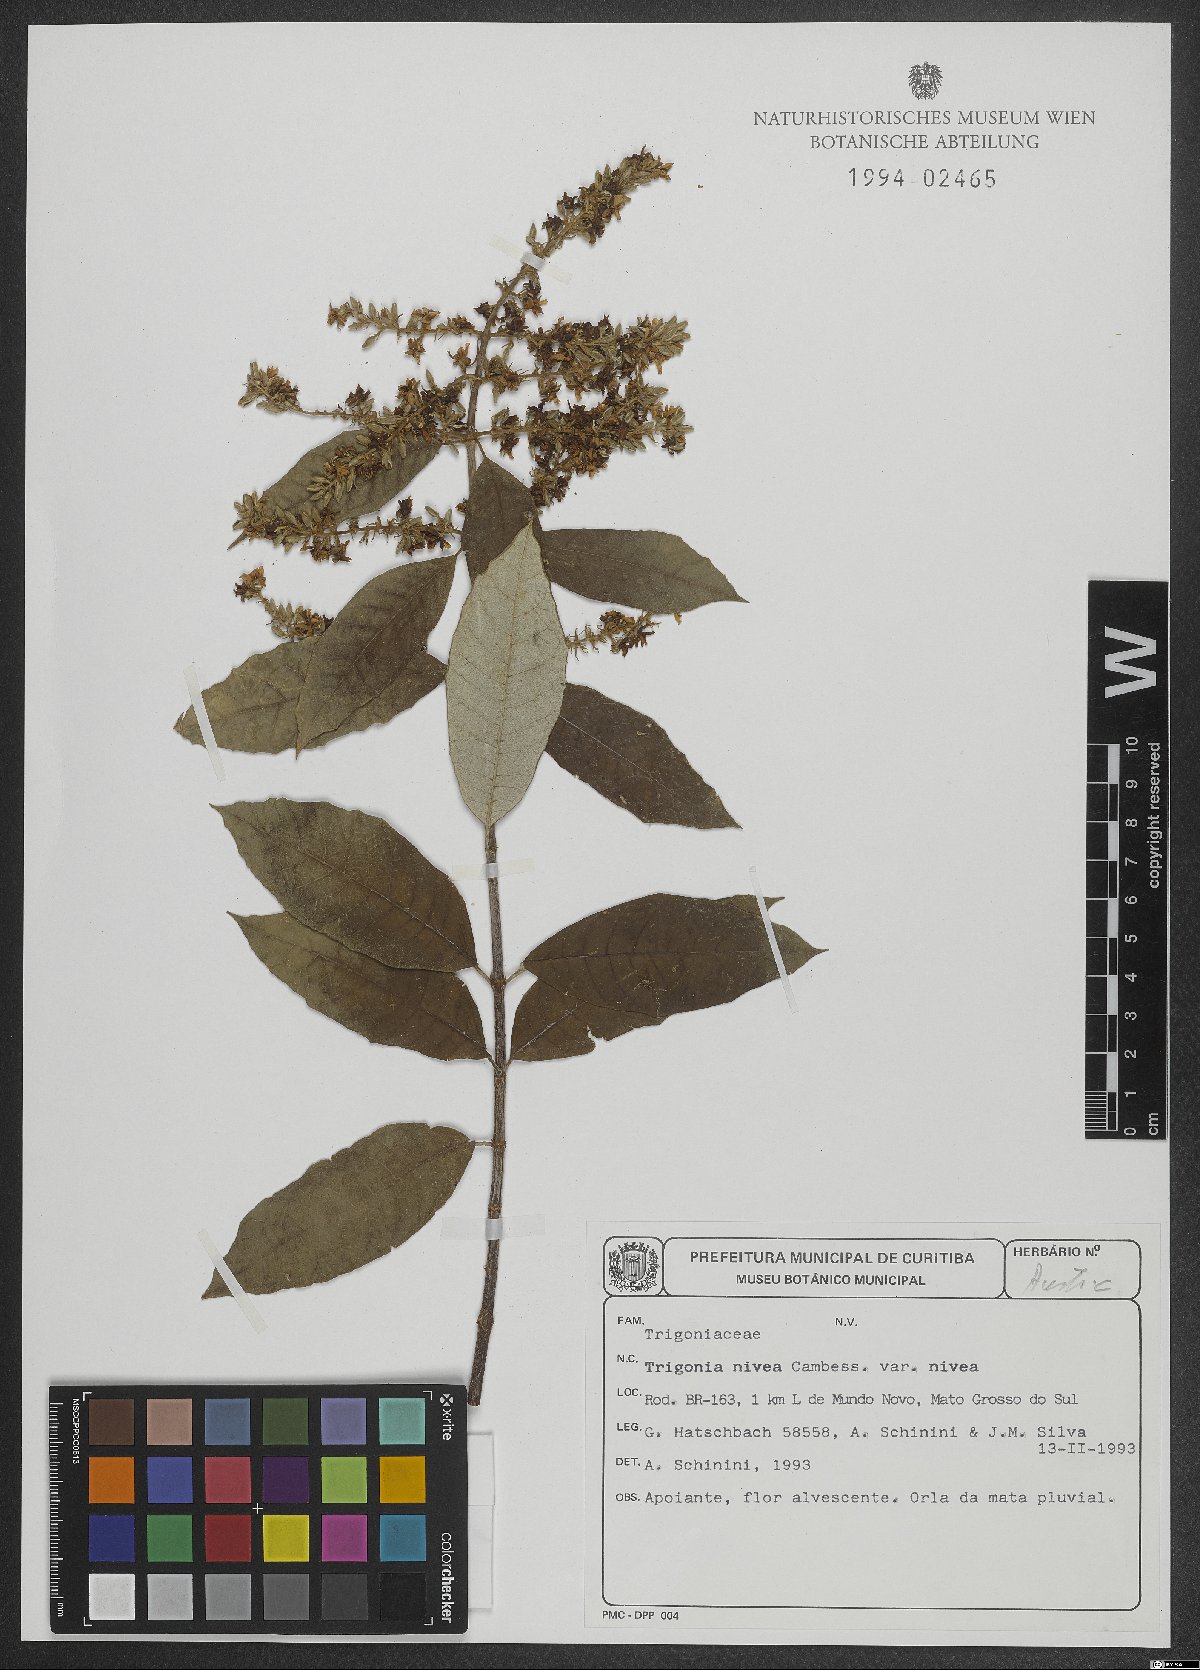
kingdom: Plantae
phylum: Tracheophyta
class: Magnoliopsida
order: Malpighiales
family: Trigoniaceae
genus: Trigonia
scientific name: Trigonia nivea
